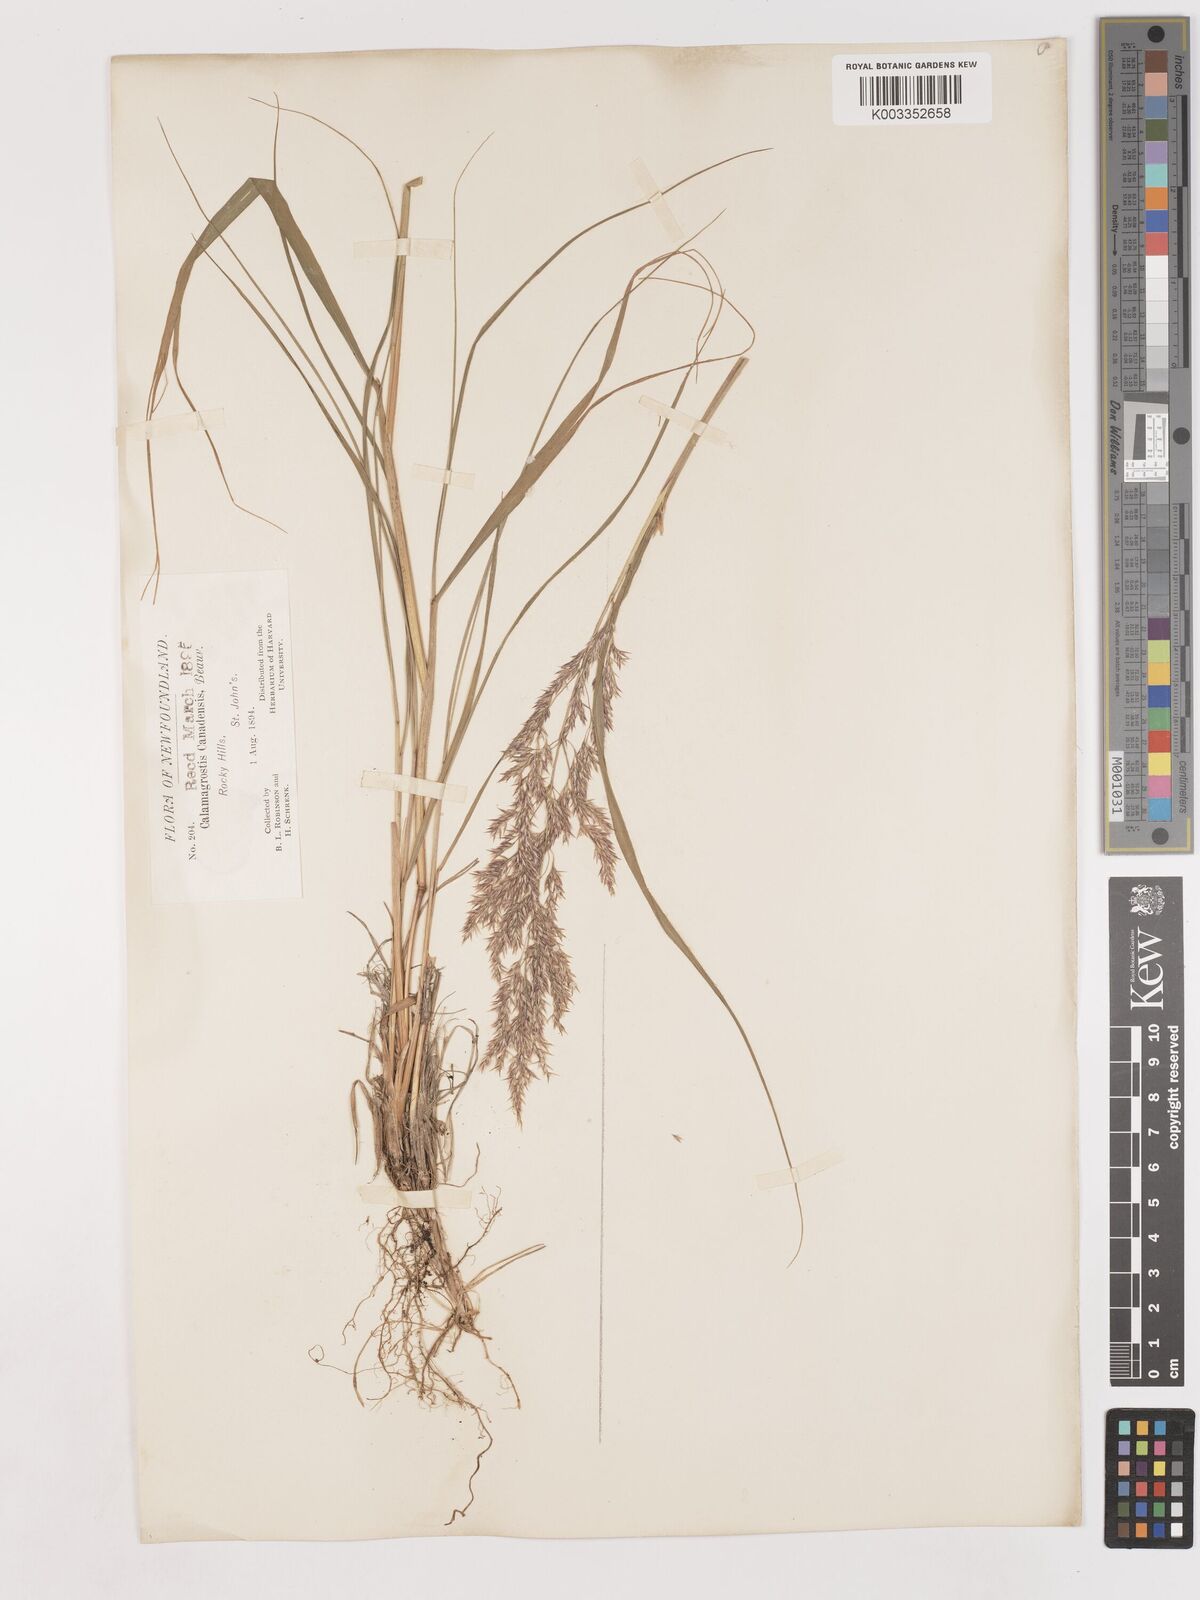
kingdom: Plantae
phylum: Tracheophyta
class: Liliopsida
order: Poales
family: Poaceae
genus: Calamagrostis
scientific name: Calamagrostis canadensis
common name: Canada bluejoint
